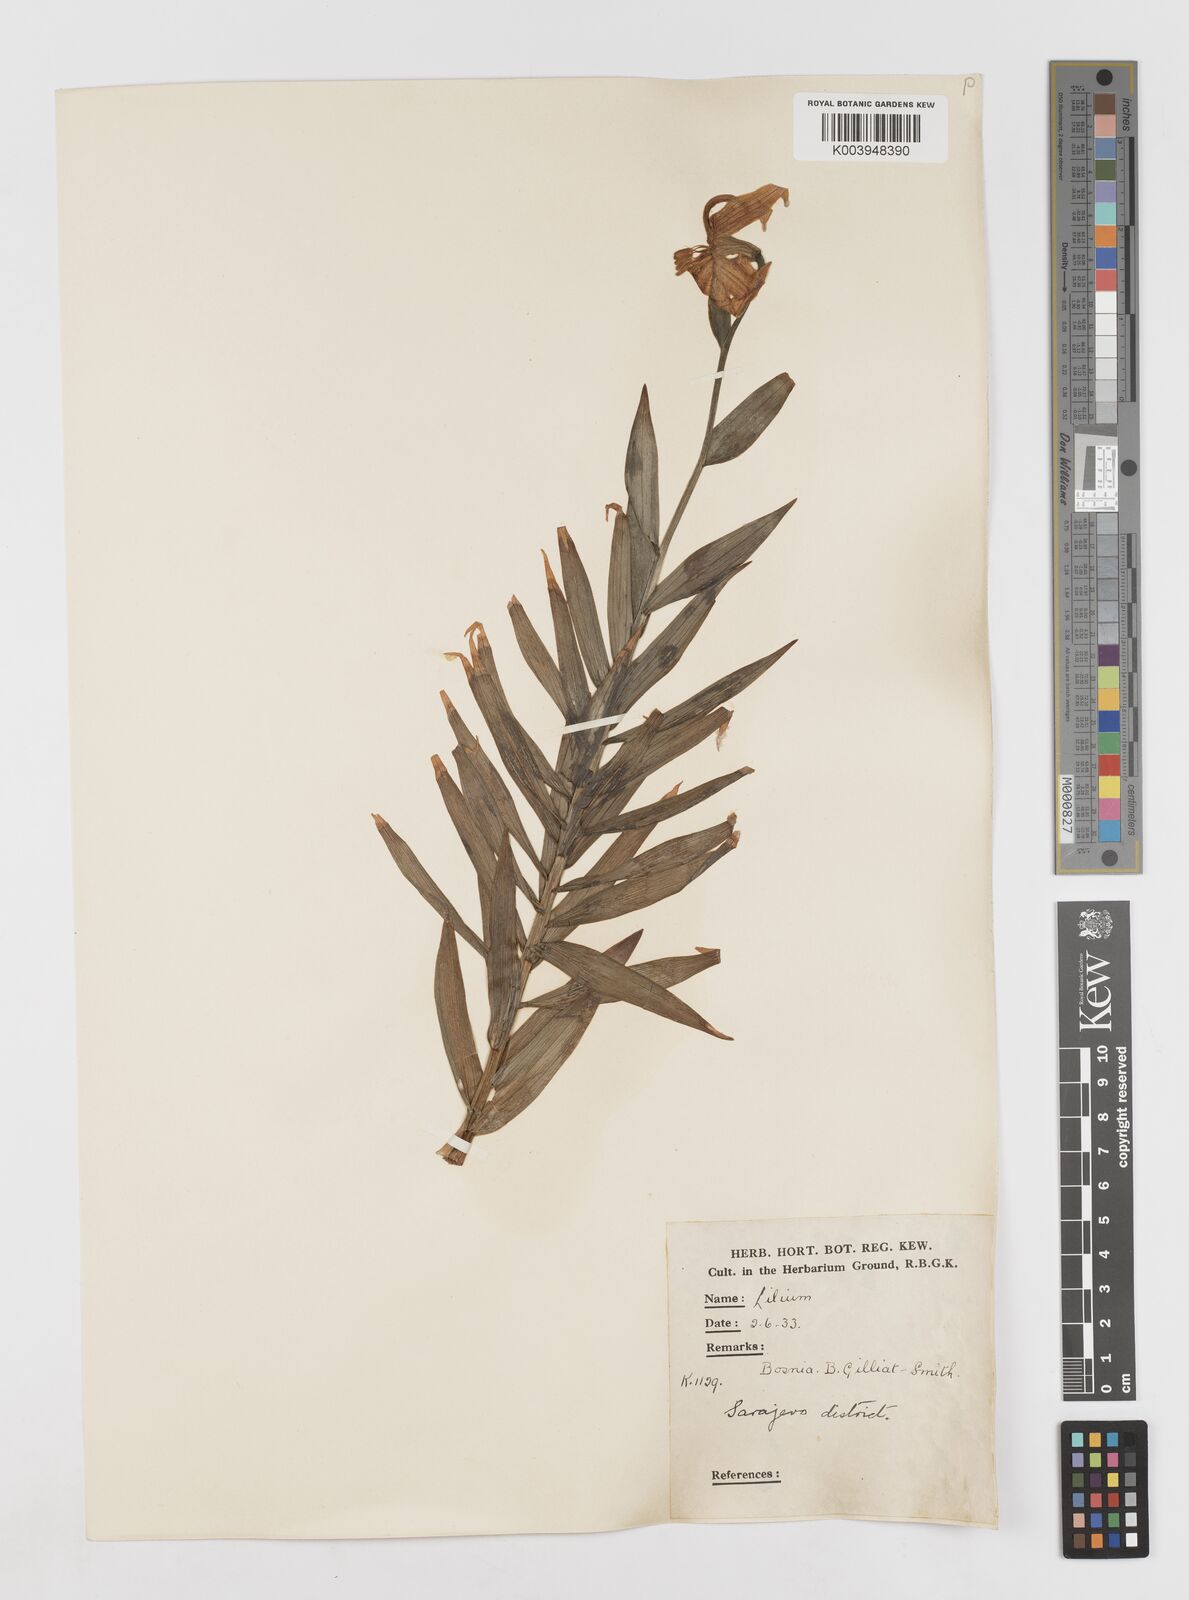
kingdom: Plantae
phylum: Tracheophyta
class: Liliopsida
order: Liliales
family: Liliaceae
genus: Lilium
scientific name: Lilium bosniacum
